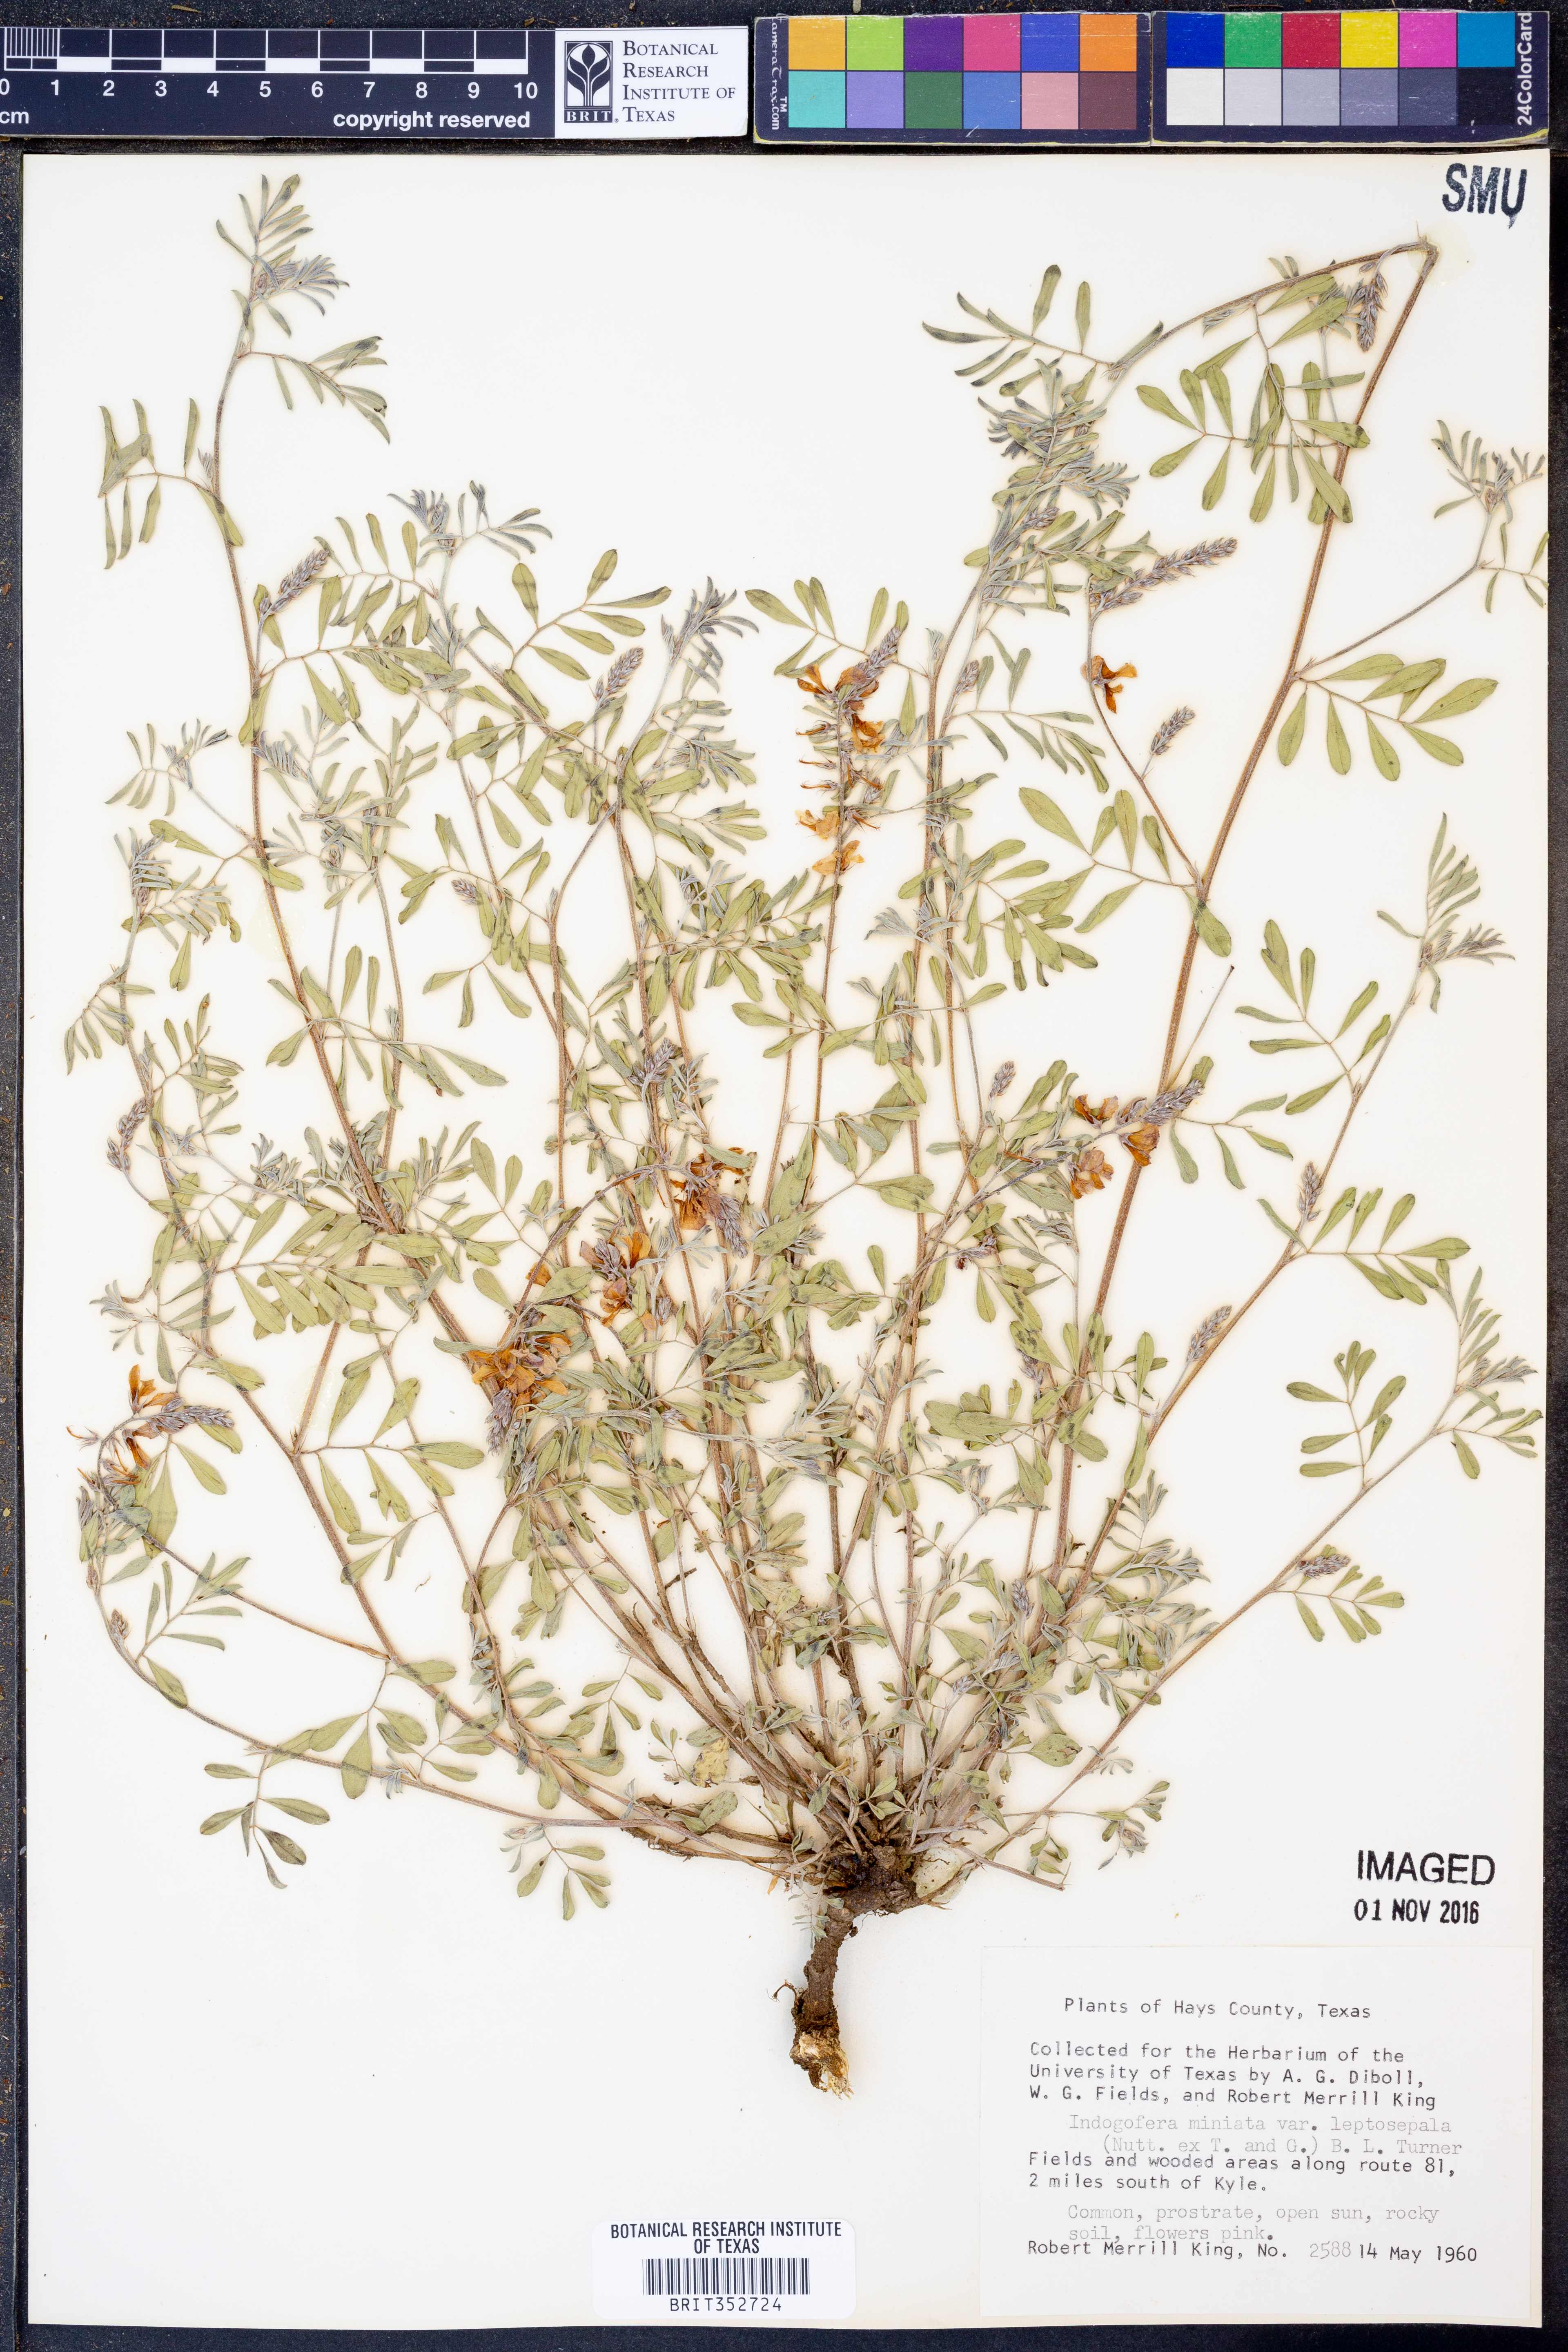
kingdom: Plantae
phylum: Tracheophyta
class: Magnoliopsida
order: Fabales
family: Fabaceae
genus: Indigofera
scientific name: Indigofera miniata
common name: Coast indigo
